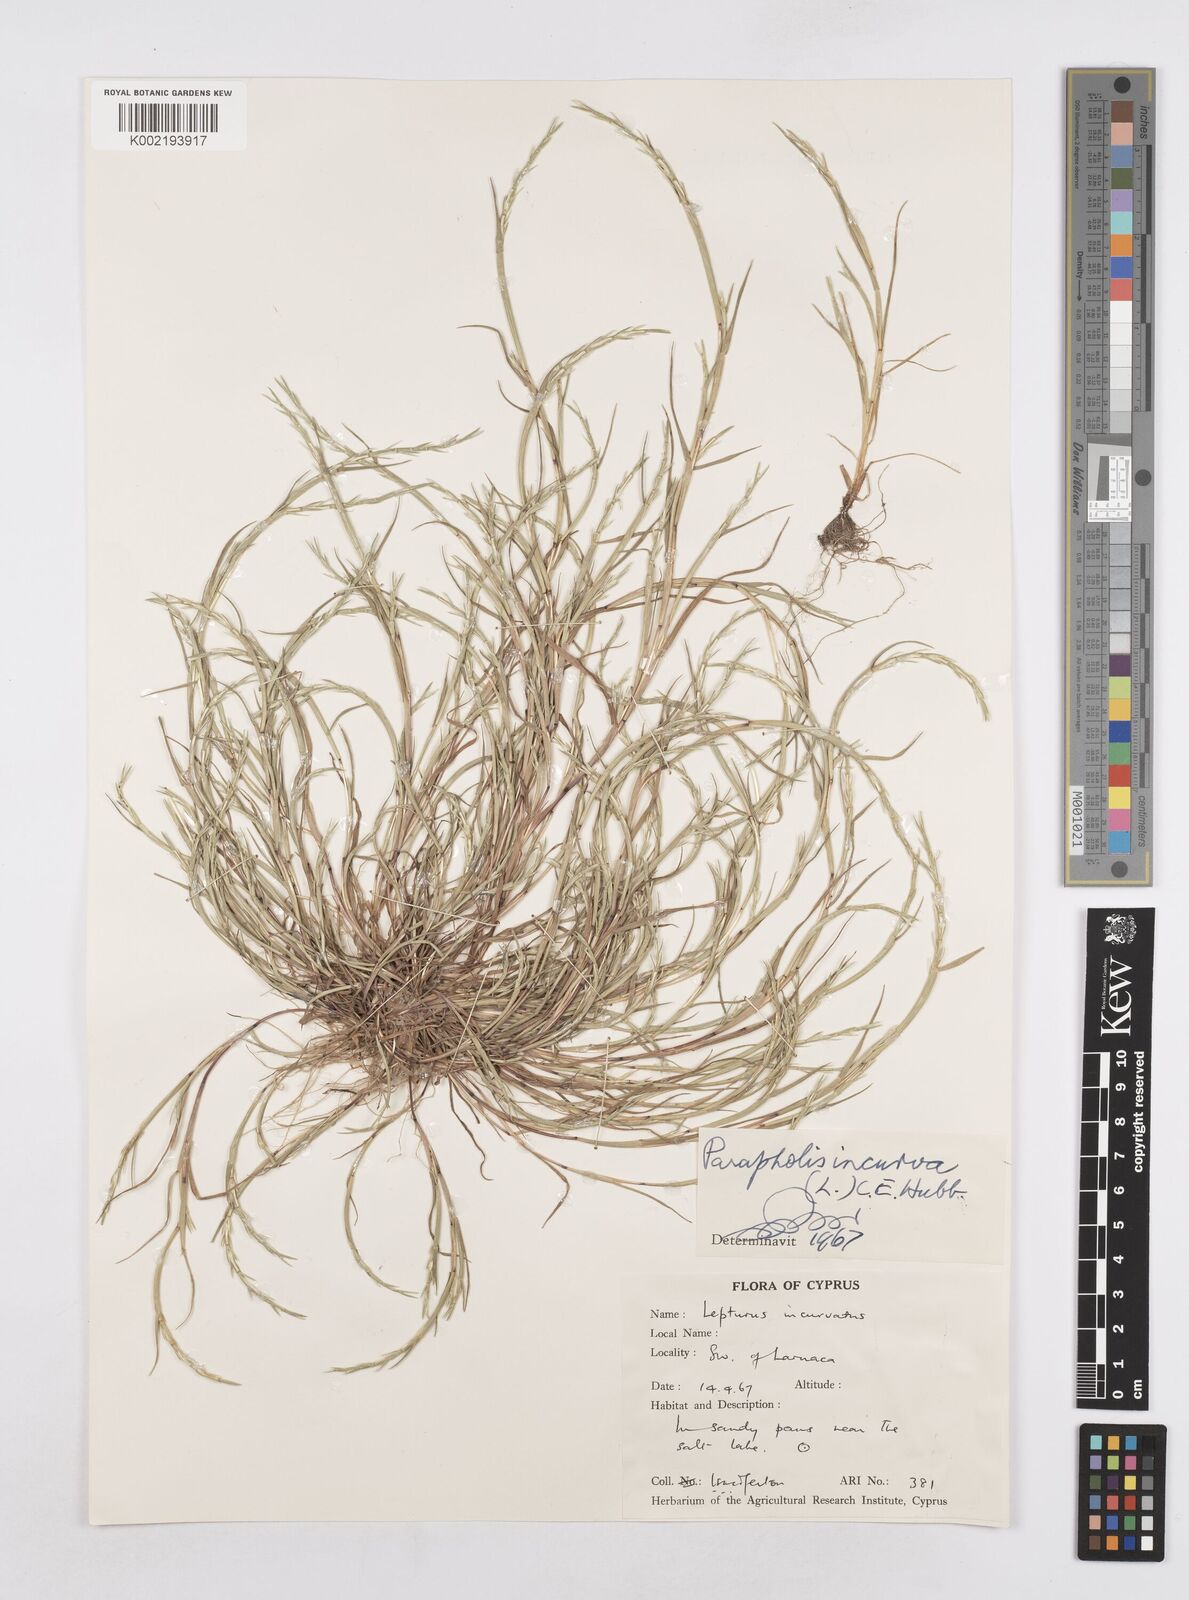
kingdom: Plantae
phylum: Tracheophyta
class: Liliopsida
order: Poales
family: Poaceae
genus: Parapholis
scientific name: Parapholis incurva
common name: Curved sicklegrass
